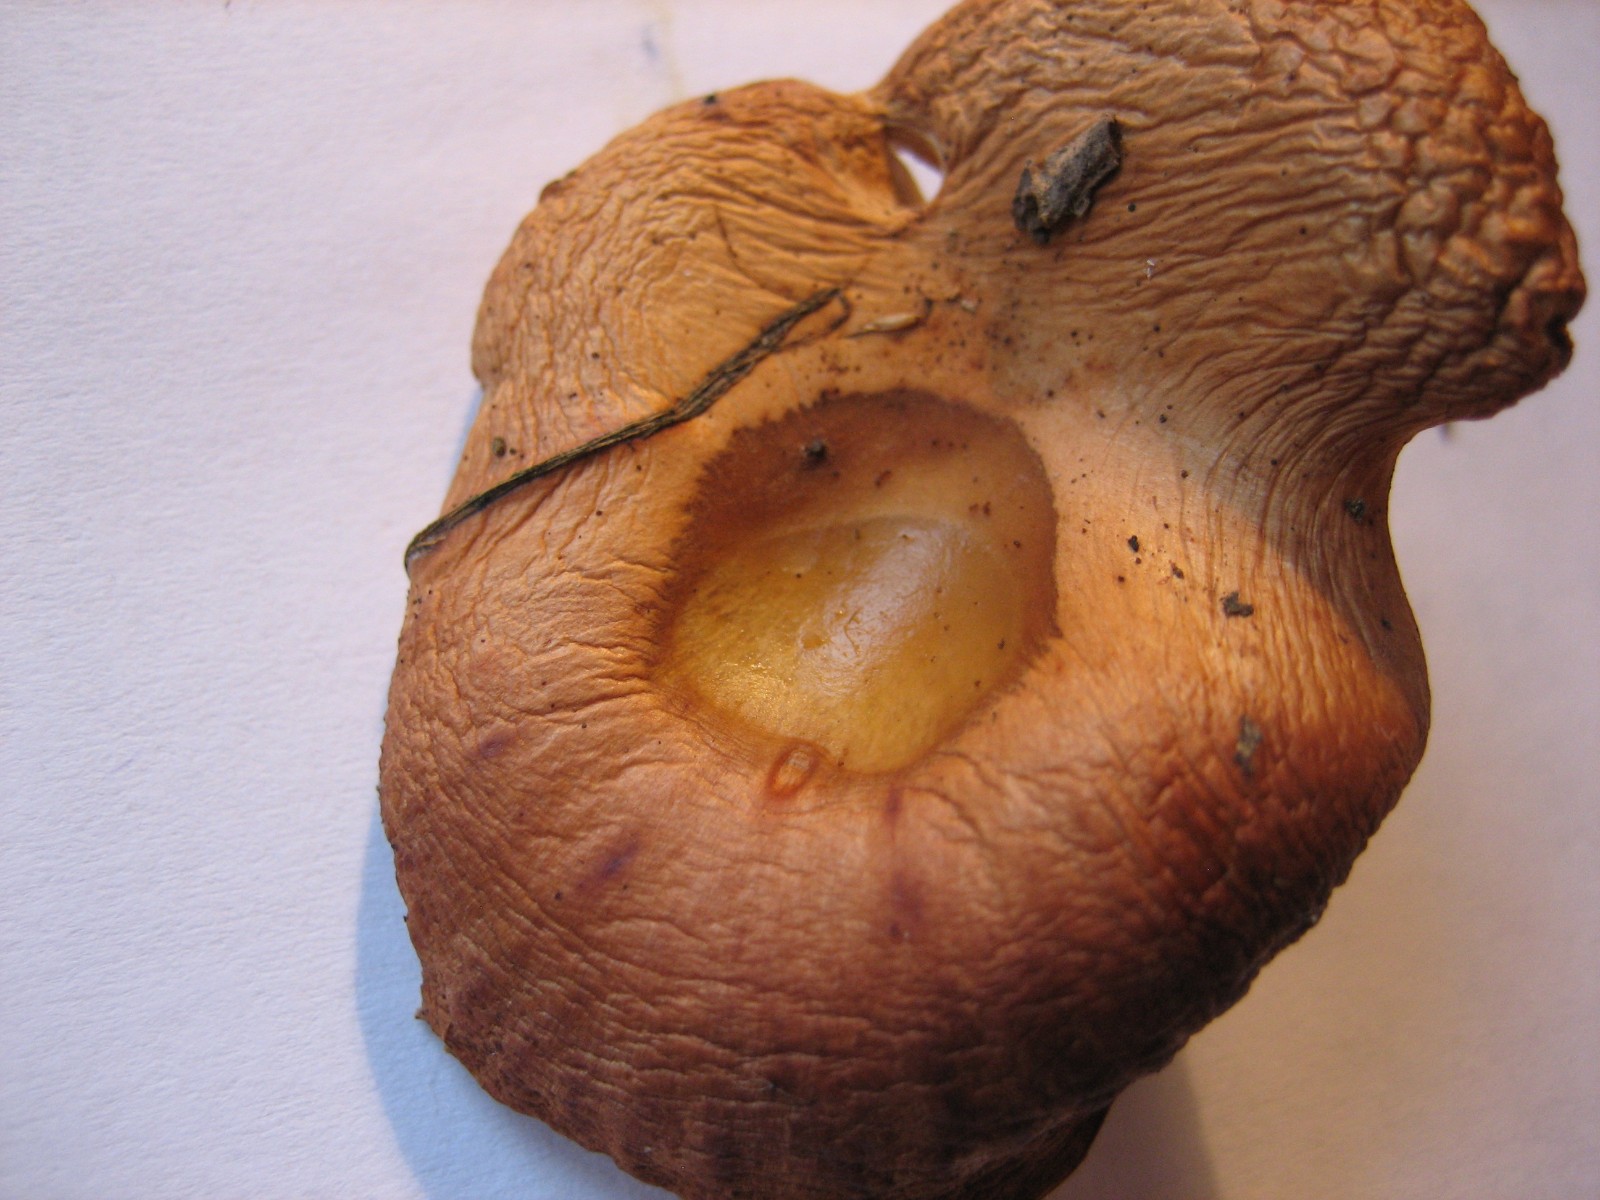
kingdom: Fungi
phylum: Basidiomycota
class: Agaricomycetes
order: Agaricales
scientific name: Agaricales
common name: champignonordenen
